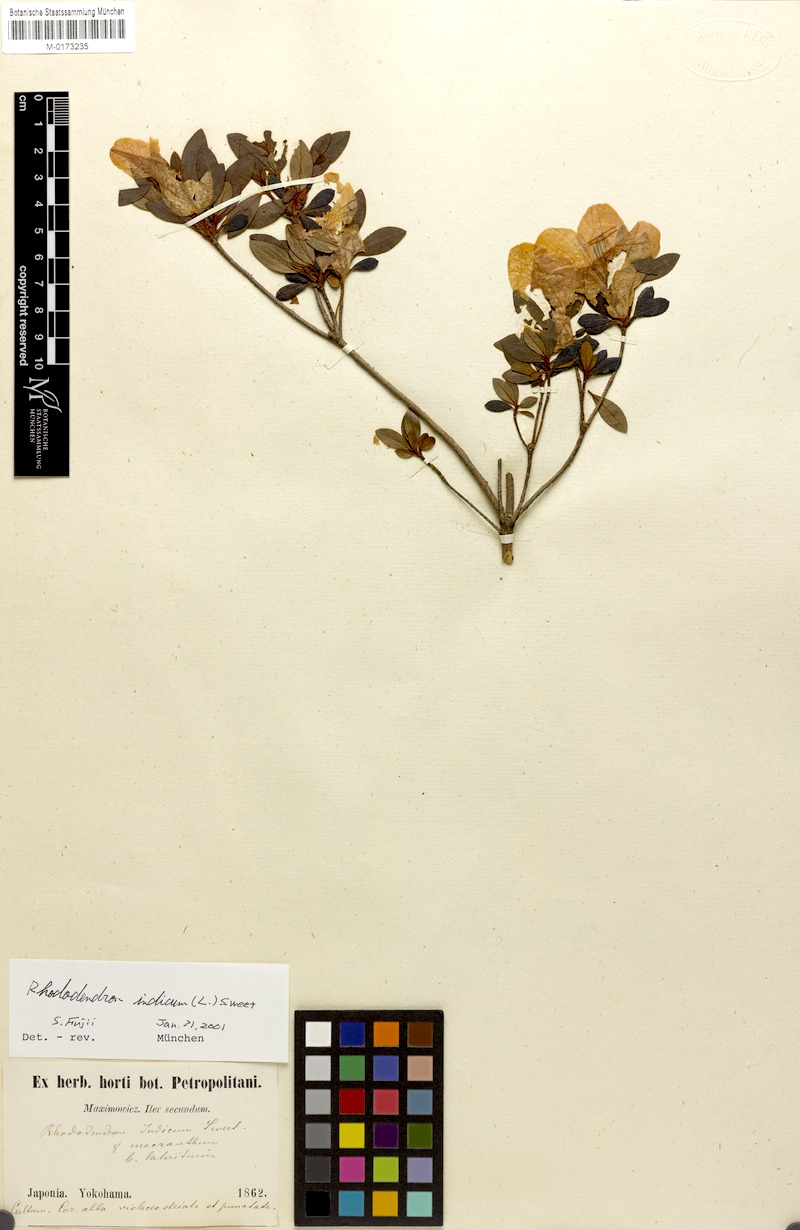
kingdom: Plantae
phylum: Tracheophyta
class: Magnoliopsida
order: Ericales
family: Ericaceae
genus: Rhododendron
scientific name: Rhododendron indicum
